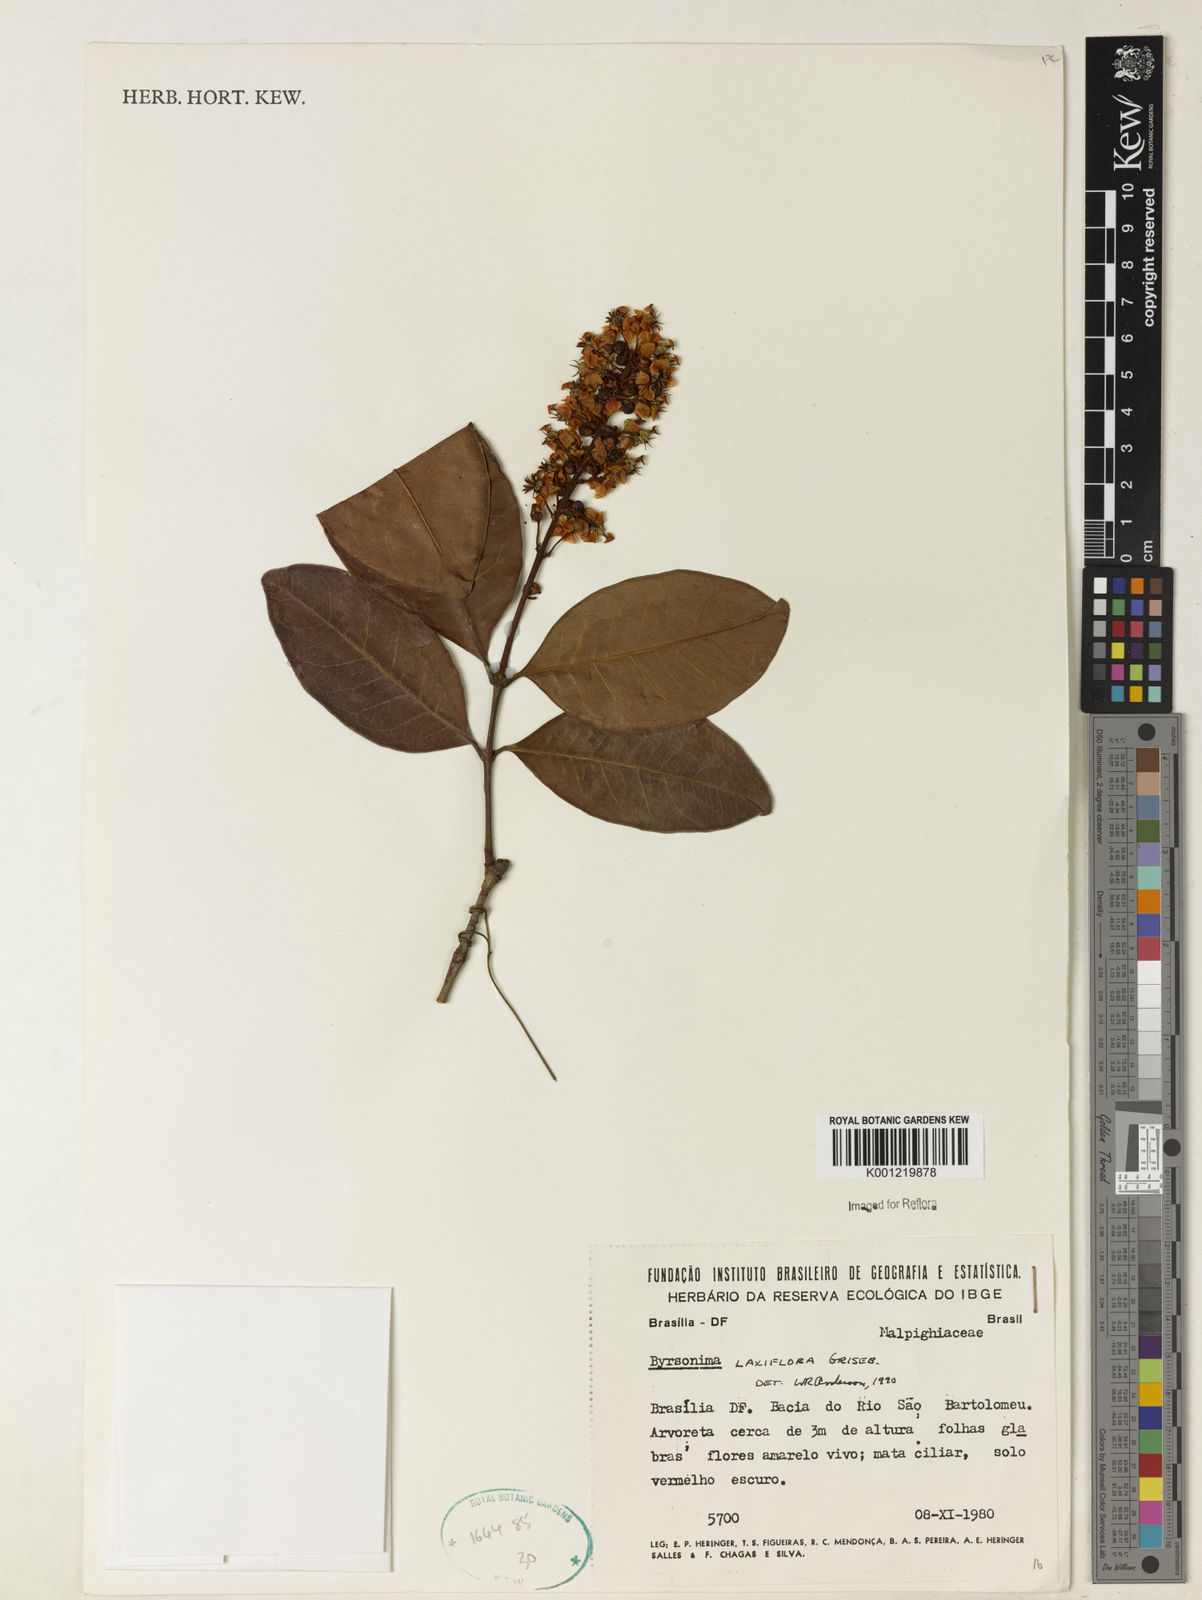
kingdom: Plantae
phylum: Tracheophyta
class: Magnoliopsida
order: Malpighiales
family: Malpighiaceae
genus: Byrsonima
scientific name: Byrsonima laxiflora
